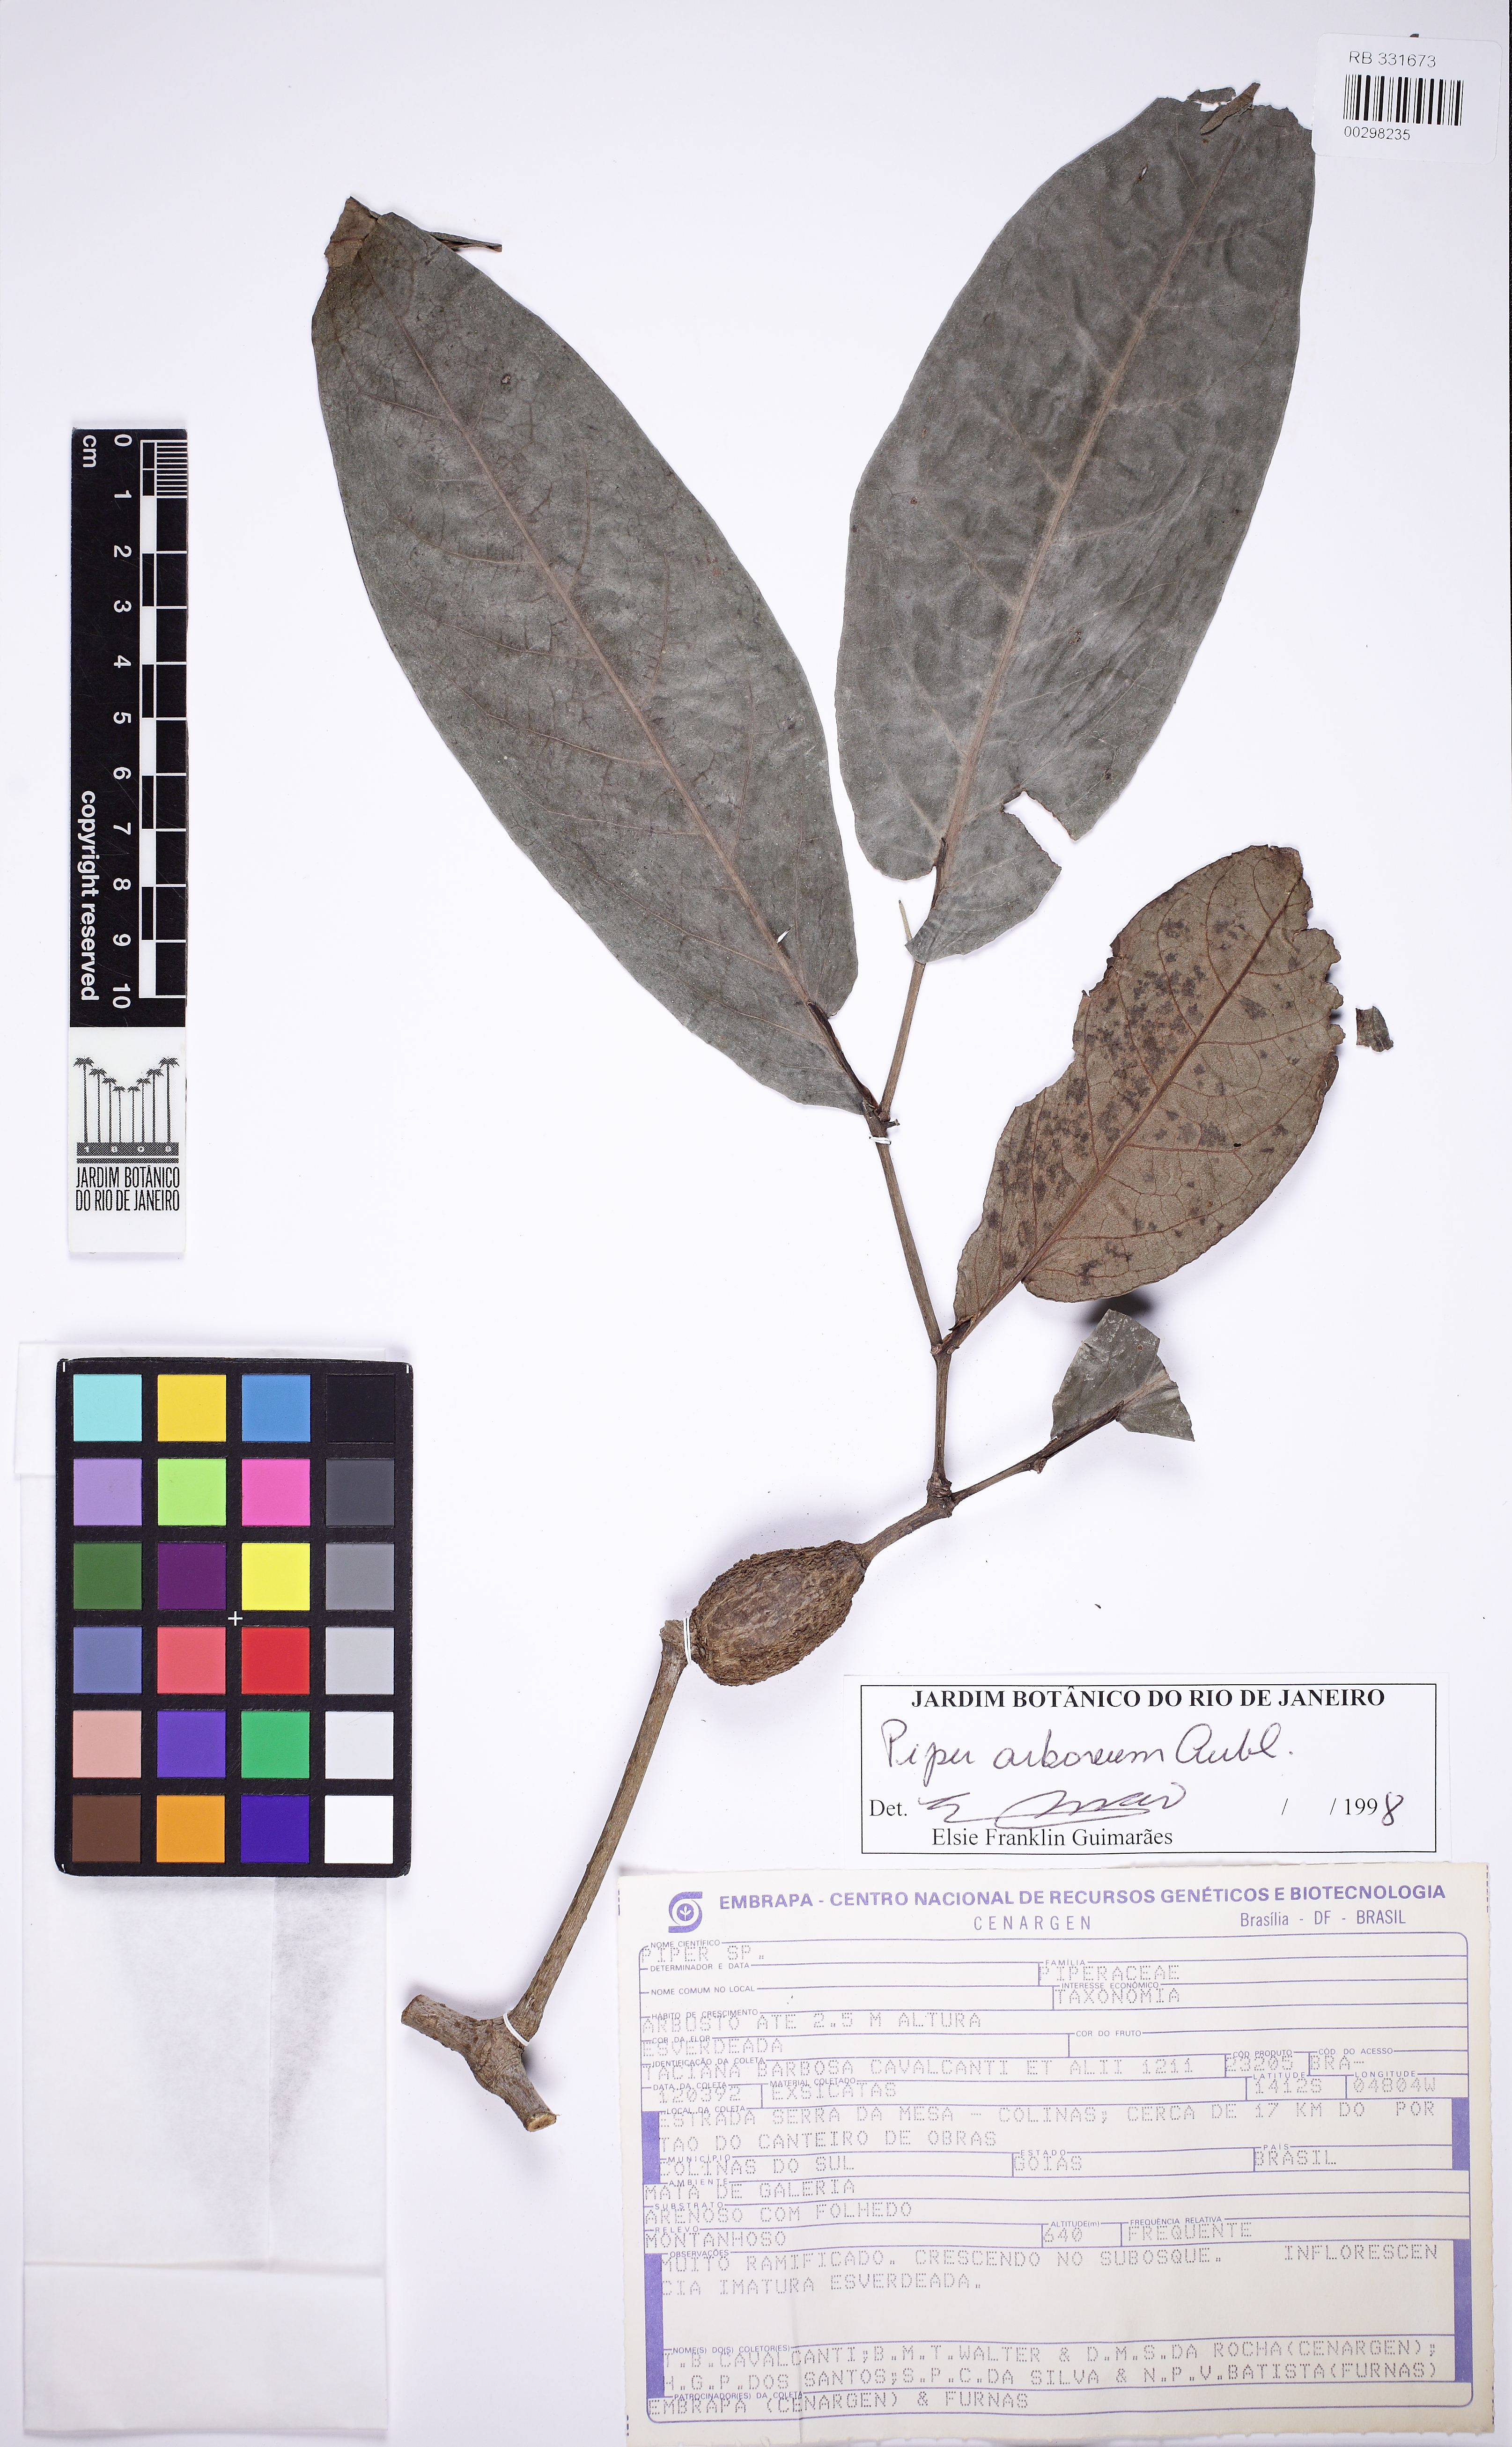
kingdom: Plantae
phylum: Tracheophyta
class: Magnoliopsida
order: Piperales
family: Piperaceae
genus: Piper
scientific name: Piper arboreum
